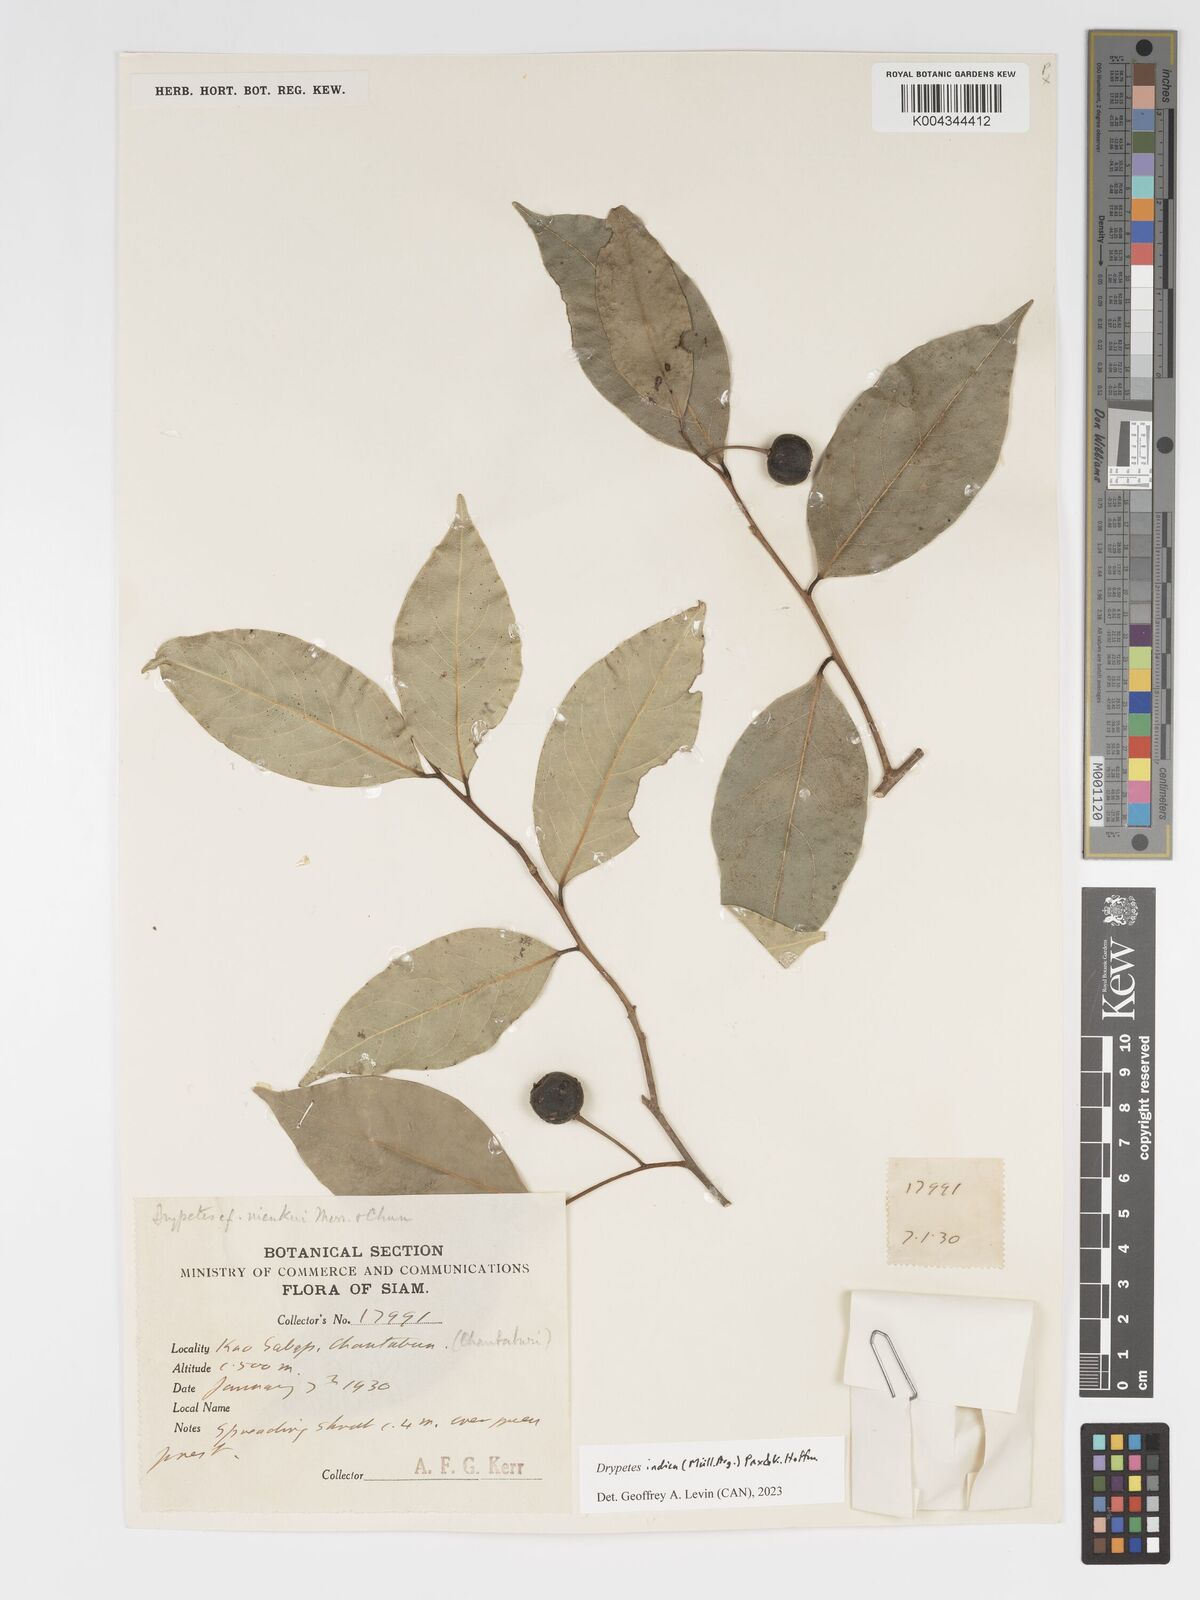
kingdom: Plantae
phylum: Tracheophyta
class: Magnoliopsida
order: Malpighiales
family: Putranjivaceae
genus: Drypetes
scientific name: Drypetes indica
